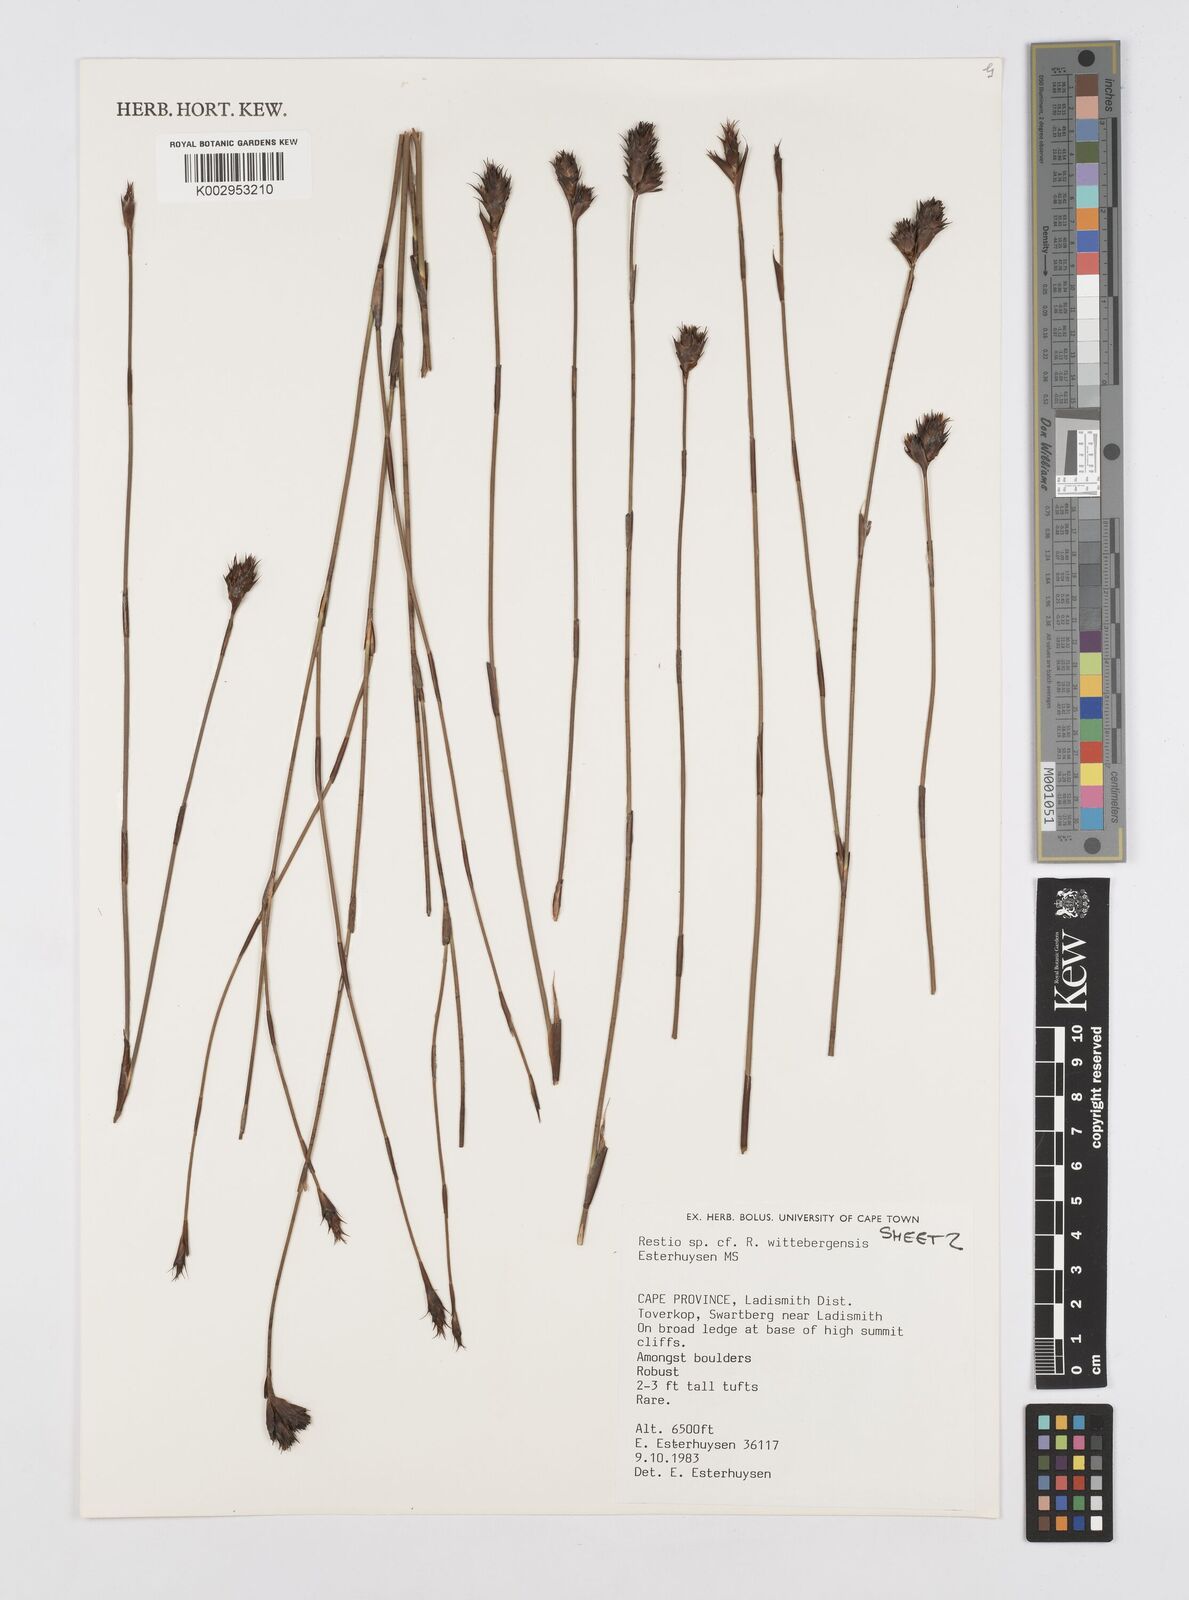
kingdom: Plantae
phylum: Tracheophyta
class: Liliopsida
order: Poales
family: Restionaceae
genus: Restio
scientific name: Restio wittebergensis
